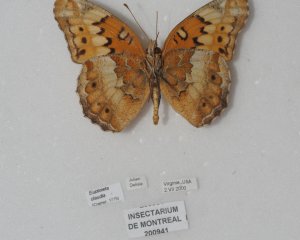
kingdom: Animalia
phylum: Arthropoda
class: Insecta
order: Lepidoptera
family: Nymphalidae
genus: Euptoieta
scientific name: Euptoieta claudia
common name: Variegated Fritillary
